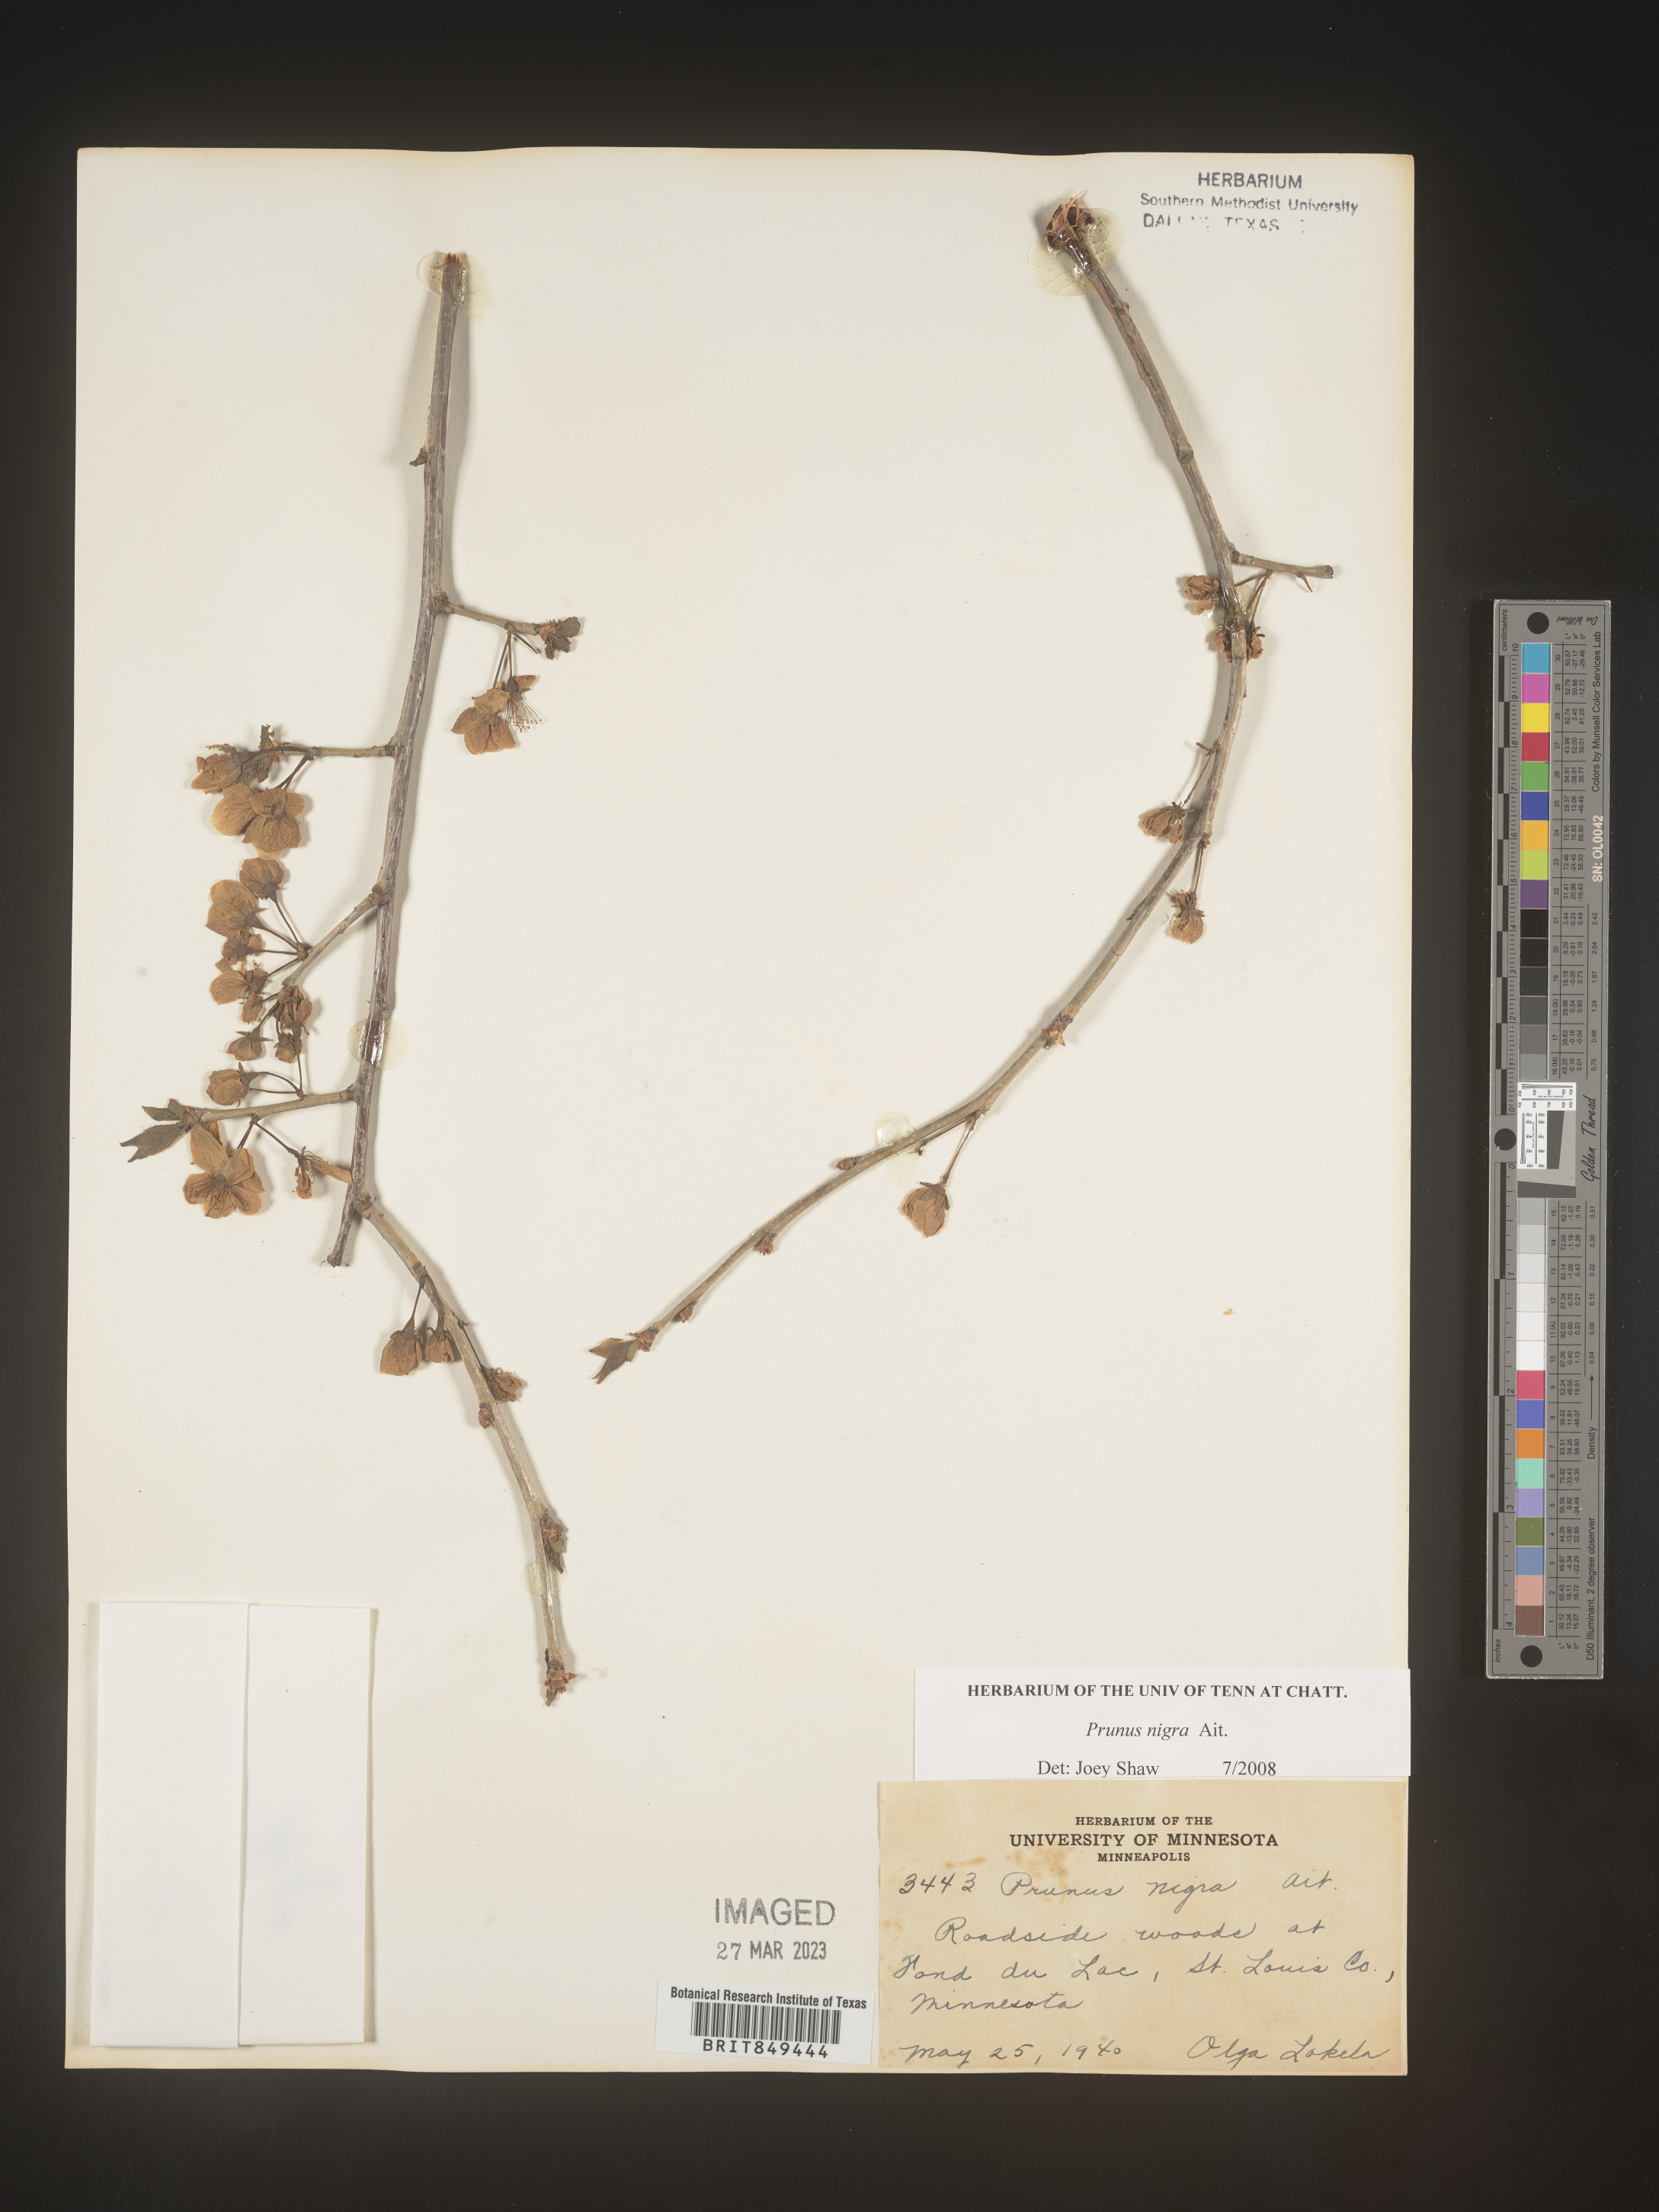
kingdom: Plantae
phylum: Tracheophyta
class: Magnoliopsida
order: Rosales
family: Rosaceae
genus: Prunus
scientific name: Prunus
